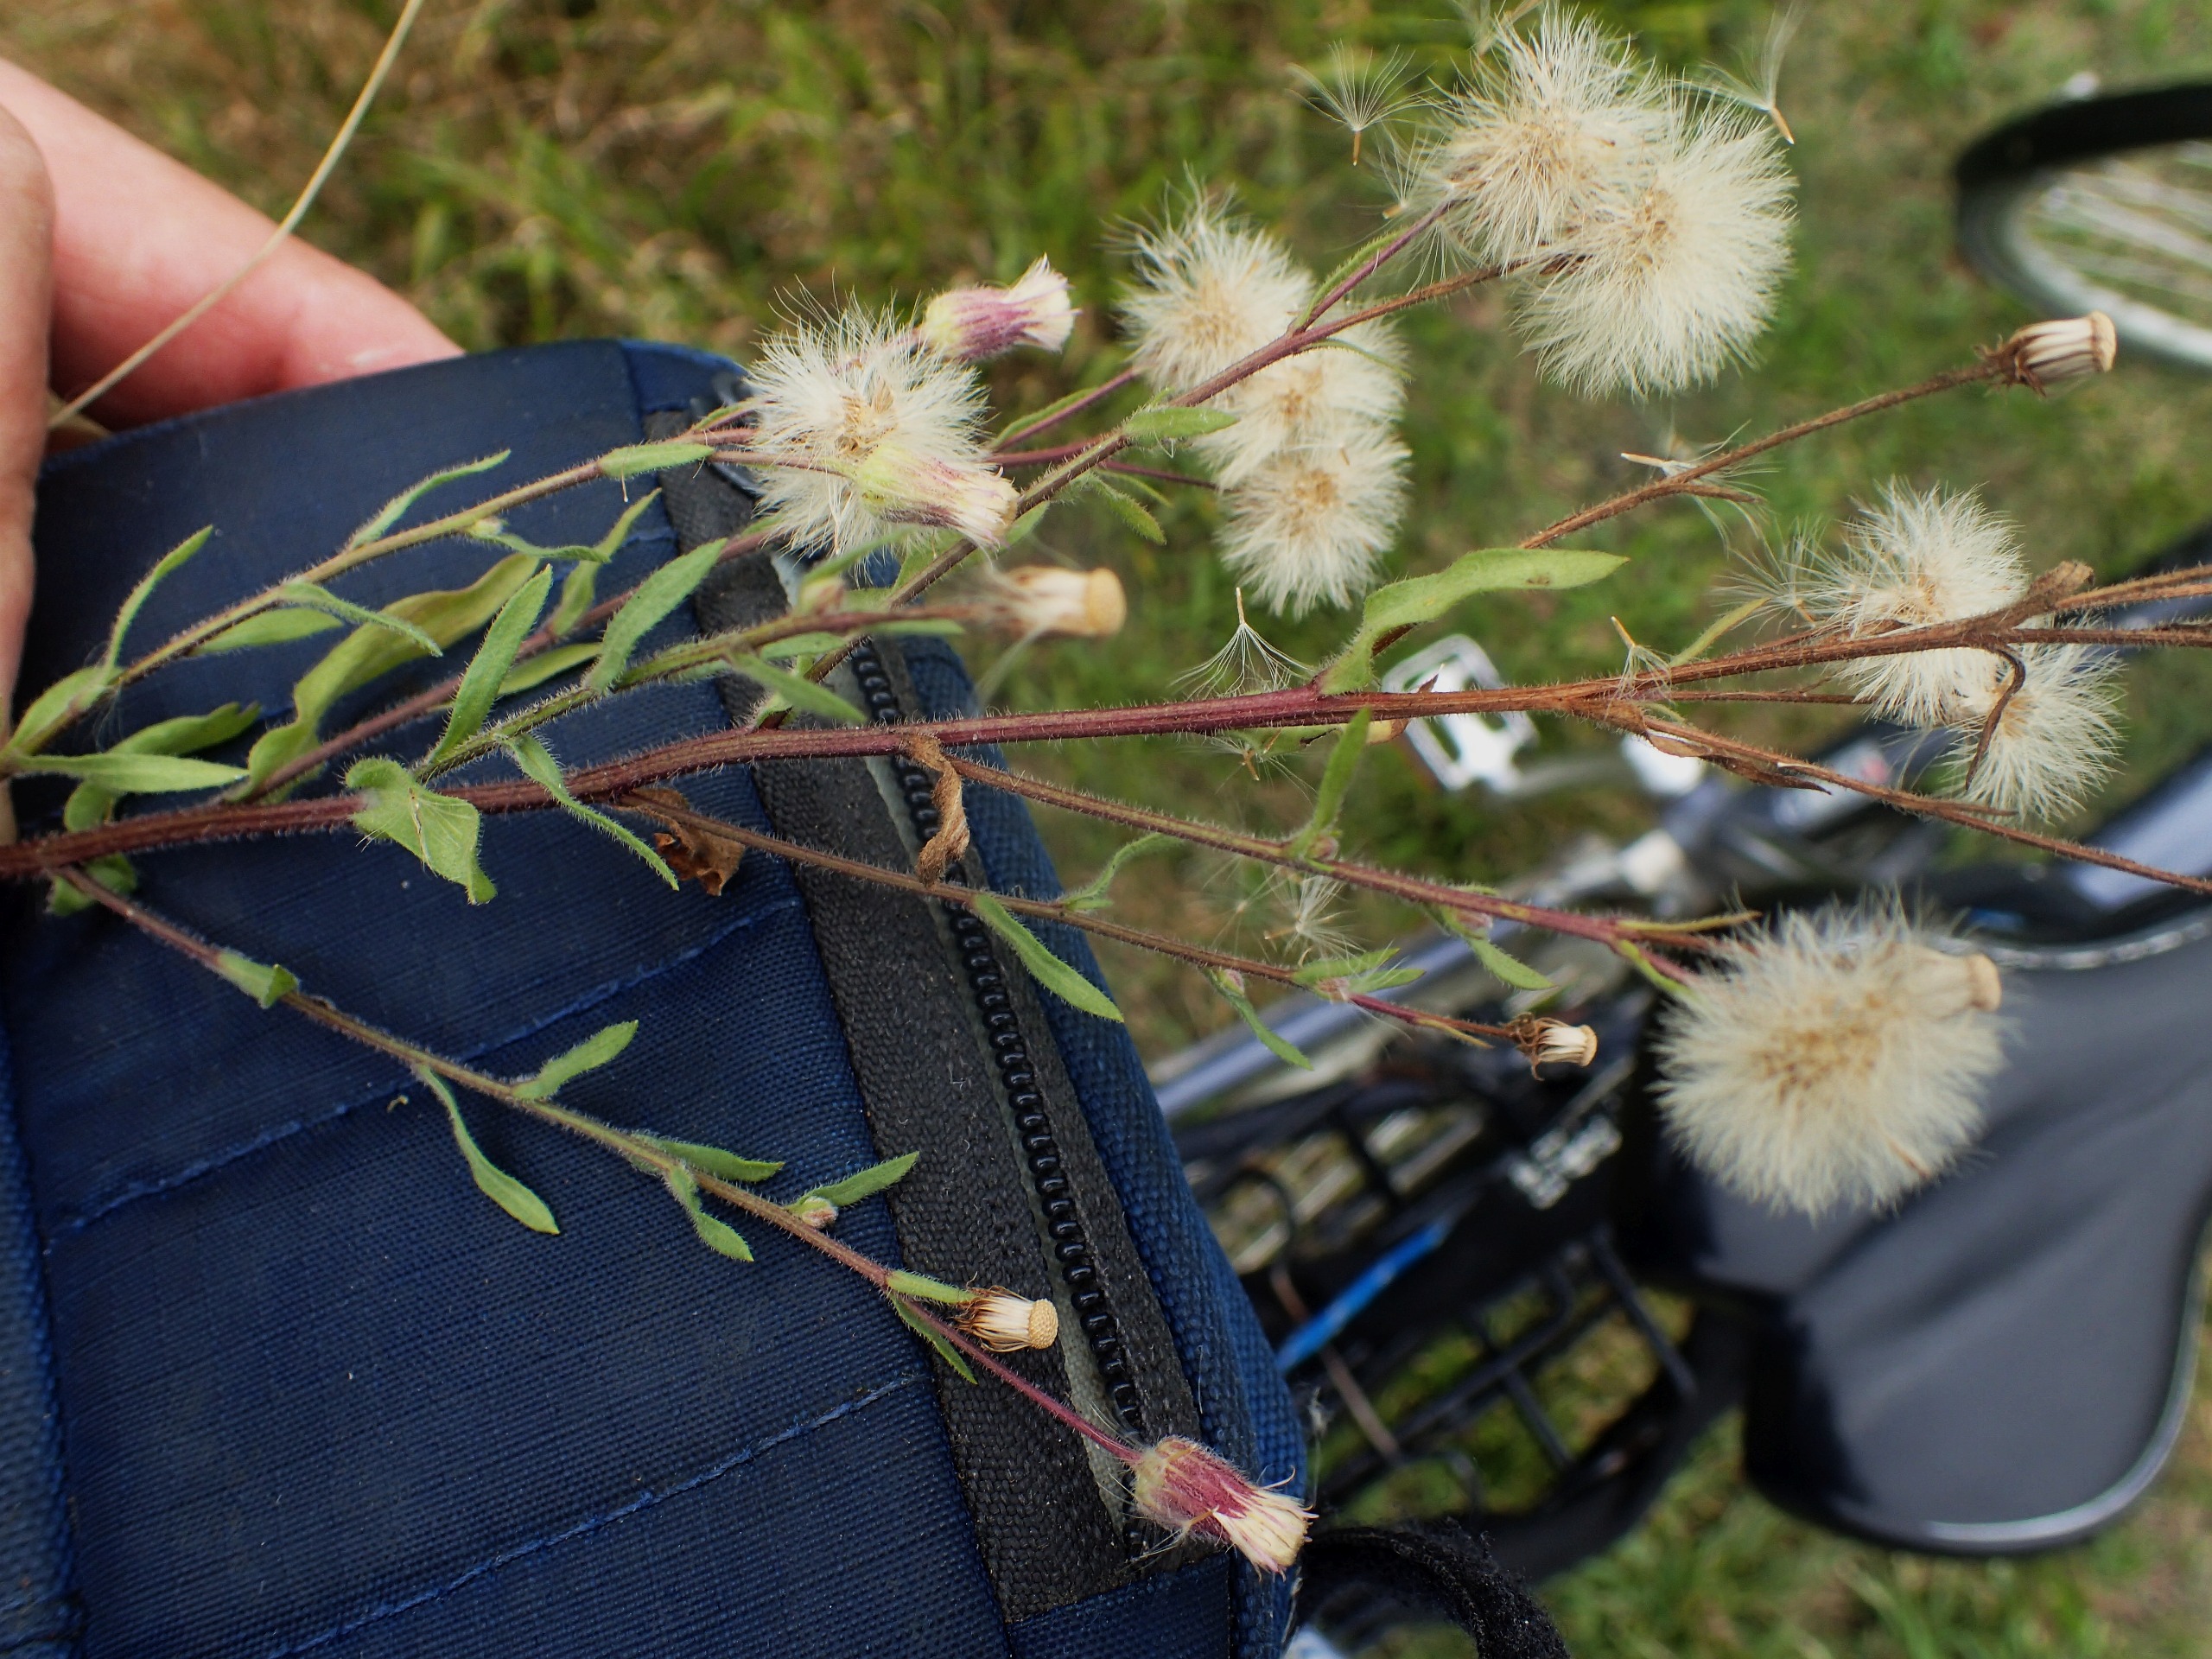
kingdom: Plantae
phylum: Tracheophyta
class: Magnoliopsida
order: Asterales
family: Asteraceae
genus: Erigeron
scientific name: Erigeron muralis
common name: Vreden bakkestjerne
